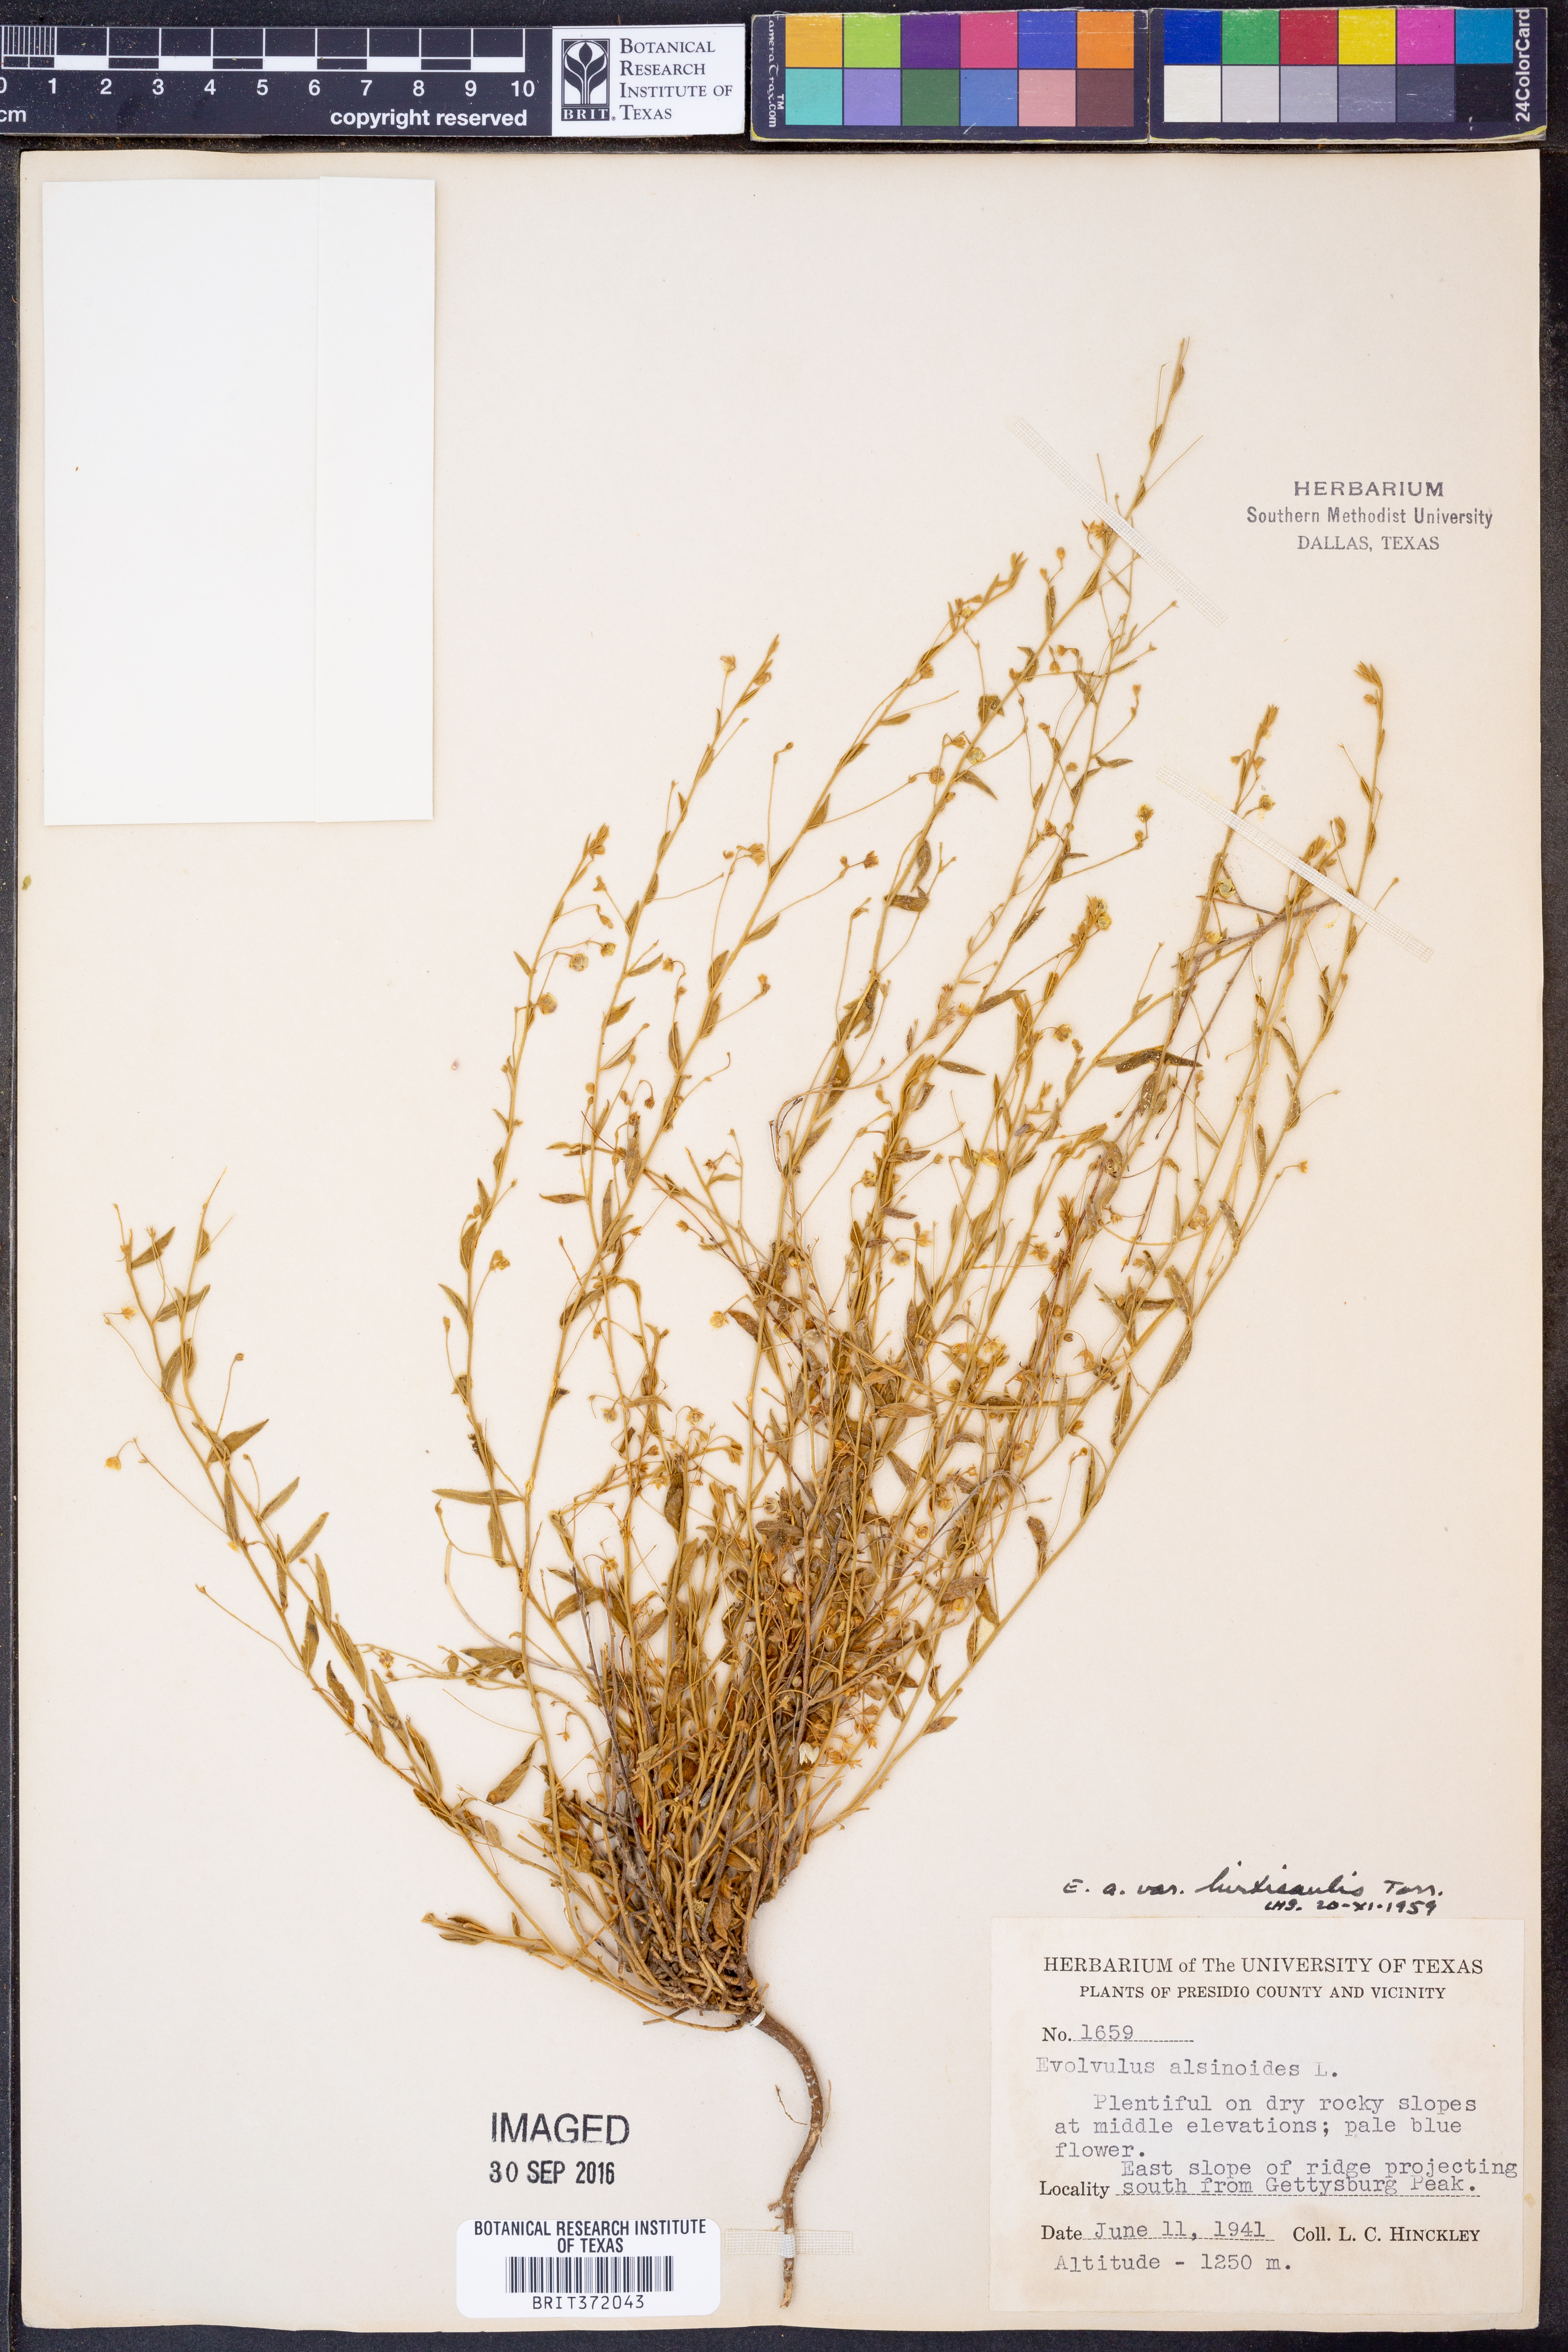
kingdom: Plantae
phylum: Tracheophyta
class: Magnoliopsida
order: Solanales
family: Convolvulaceae
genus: Evolvulus
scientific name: Evolvulus alsinoides
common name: Slender dwarf morning-glory
